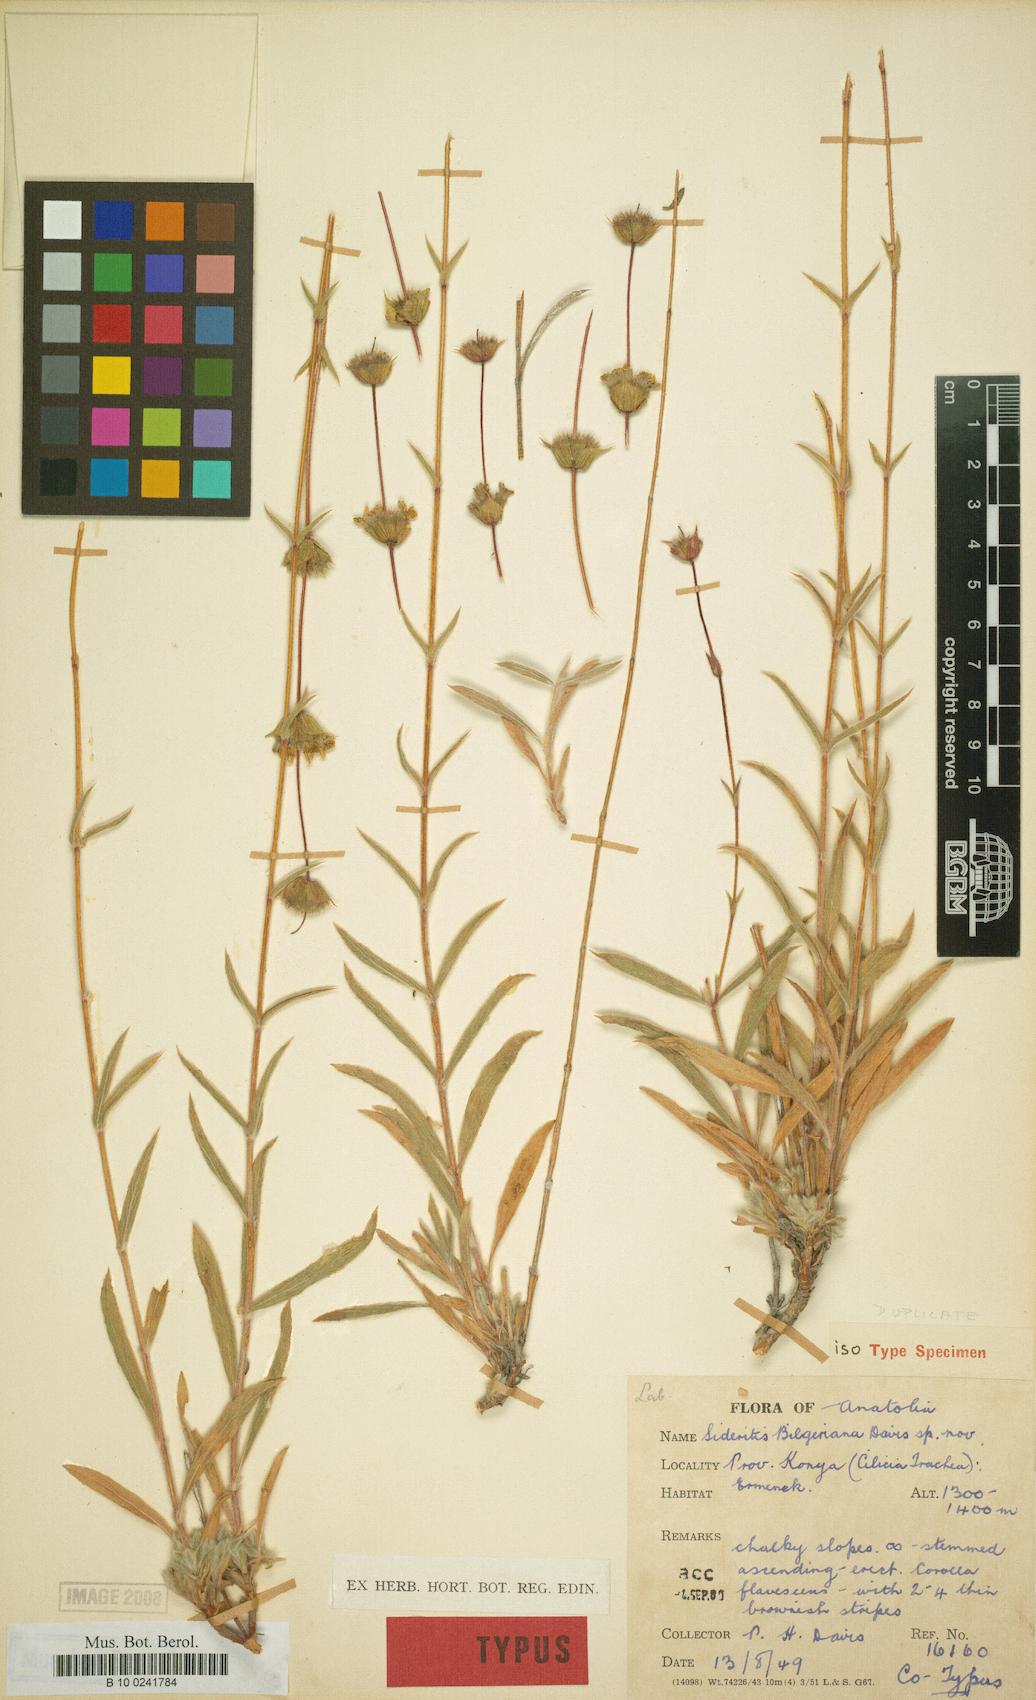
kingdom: Plantae
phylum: Tracheophyta
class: Magnoliopsida
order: Lamiales
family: Lamiaceae
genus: Sideritis
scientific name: Sideritis bilgeriana
